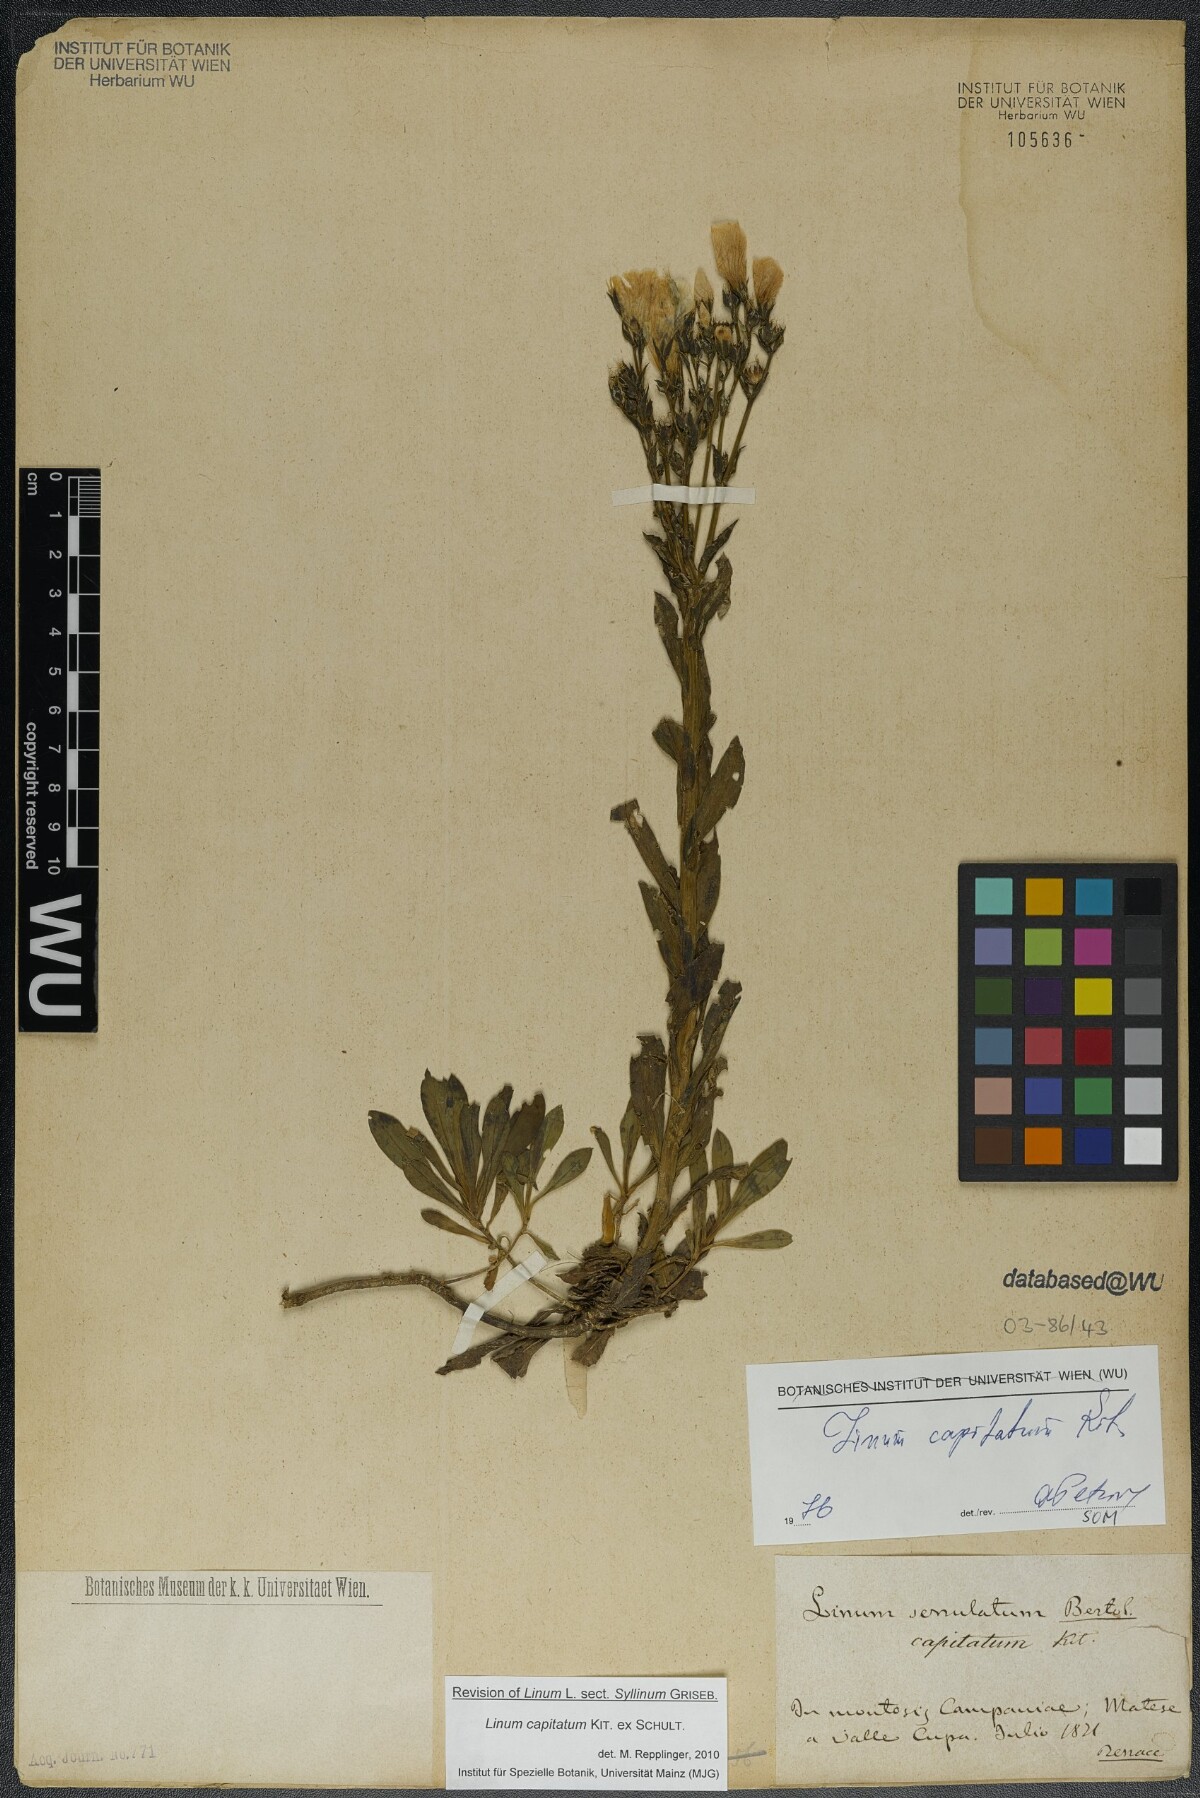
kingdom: Plantae
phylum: Tracheophyta
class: Magnoliopsida
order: Malpighiales
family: Linaceae
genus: Linum
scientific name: Linum capitatum
